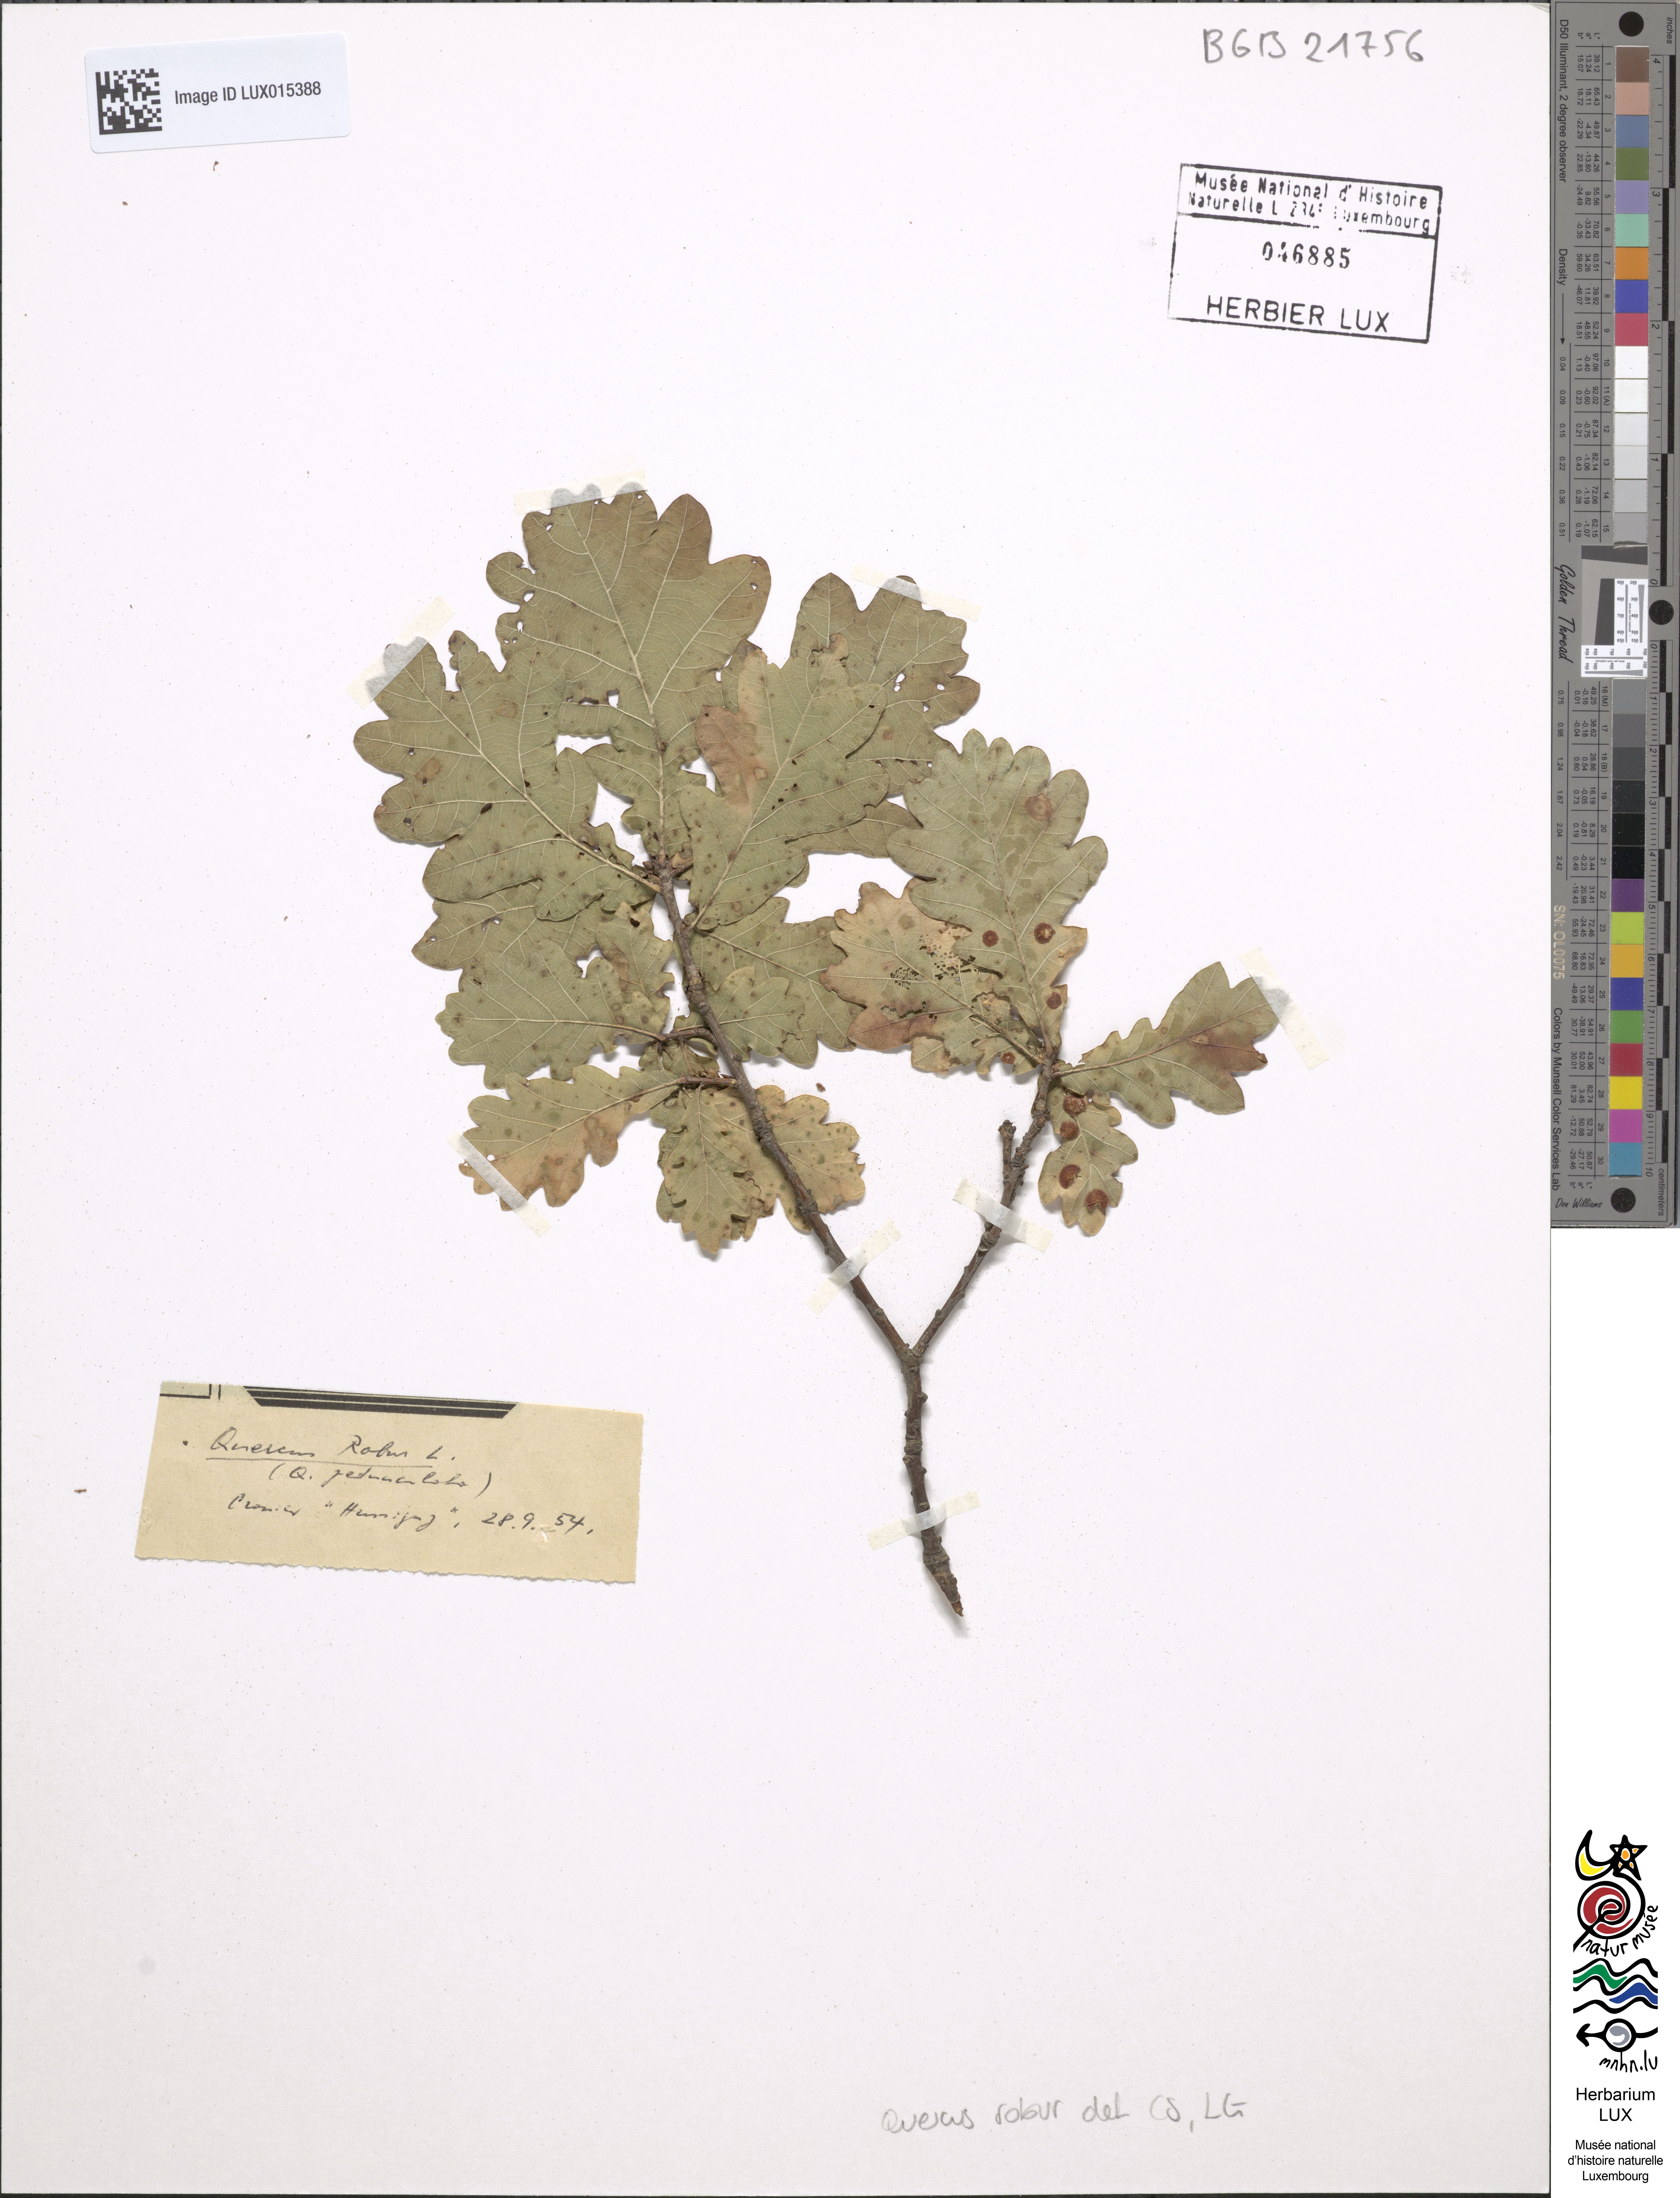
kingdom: Plantae
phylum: Tracheophyta
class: Magnoliopsida
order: Fagales
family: Fagaceae
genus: Quercus
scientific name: Quercus robur
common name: Pedunculate oak
